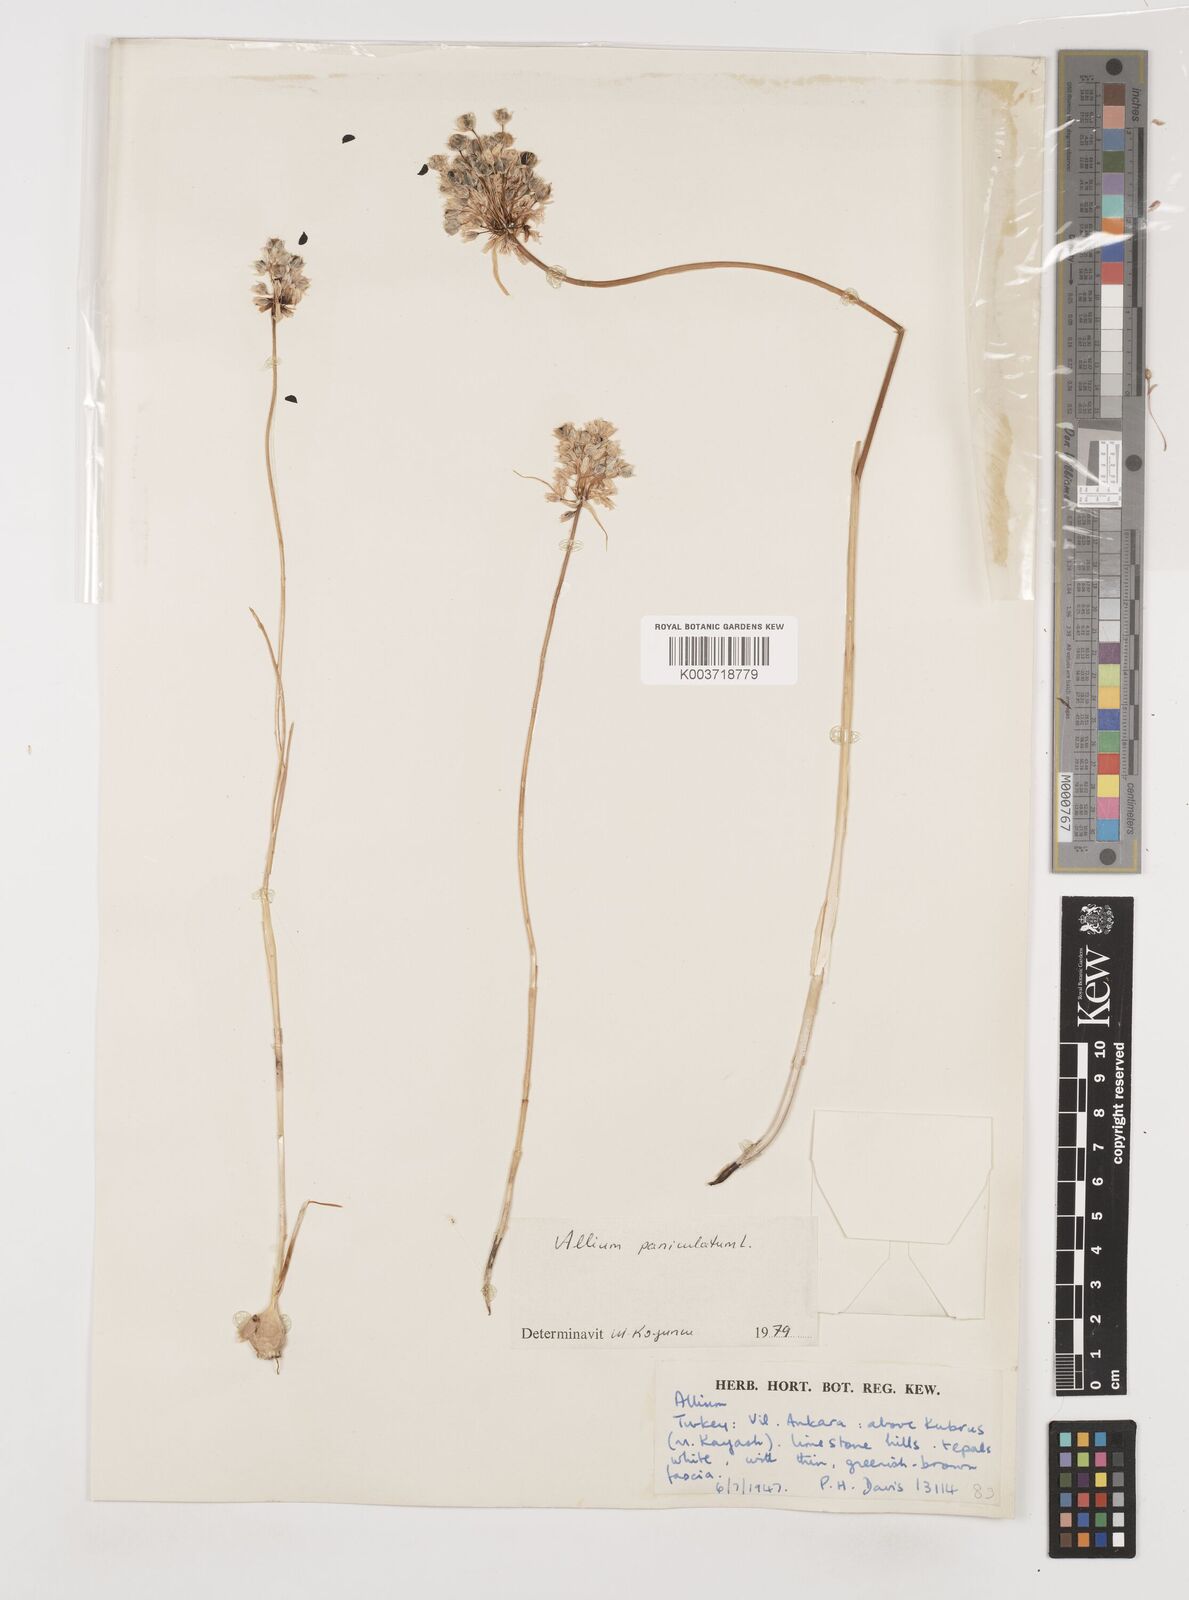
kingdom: Plantae
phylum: Tracheophyta
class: Liliopsida
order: Asparagales
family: Amaryllidaceae
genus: Allium
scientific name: Allium flavum
